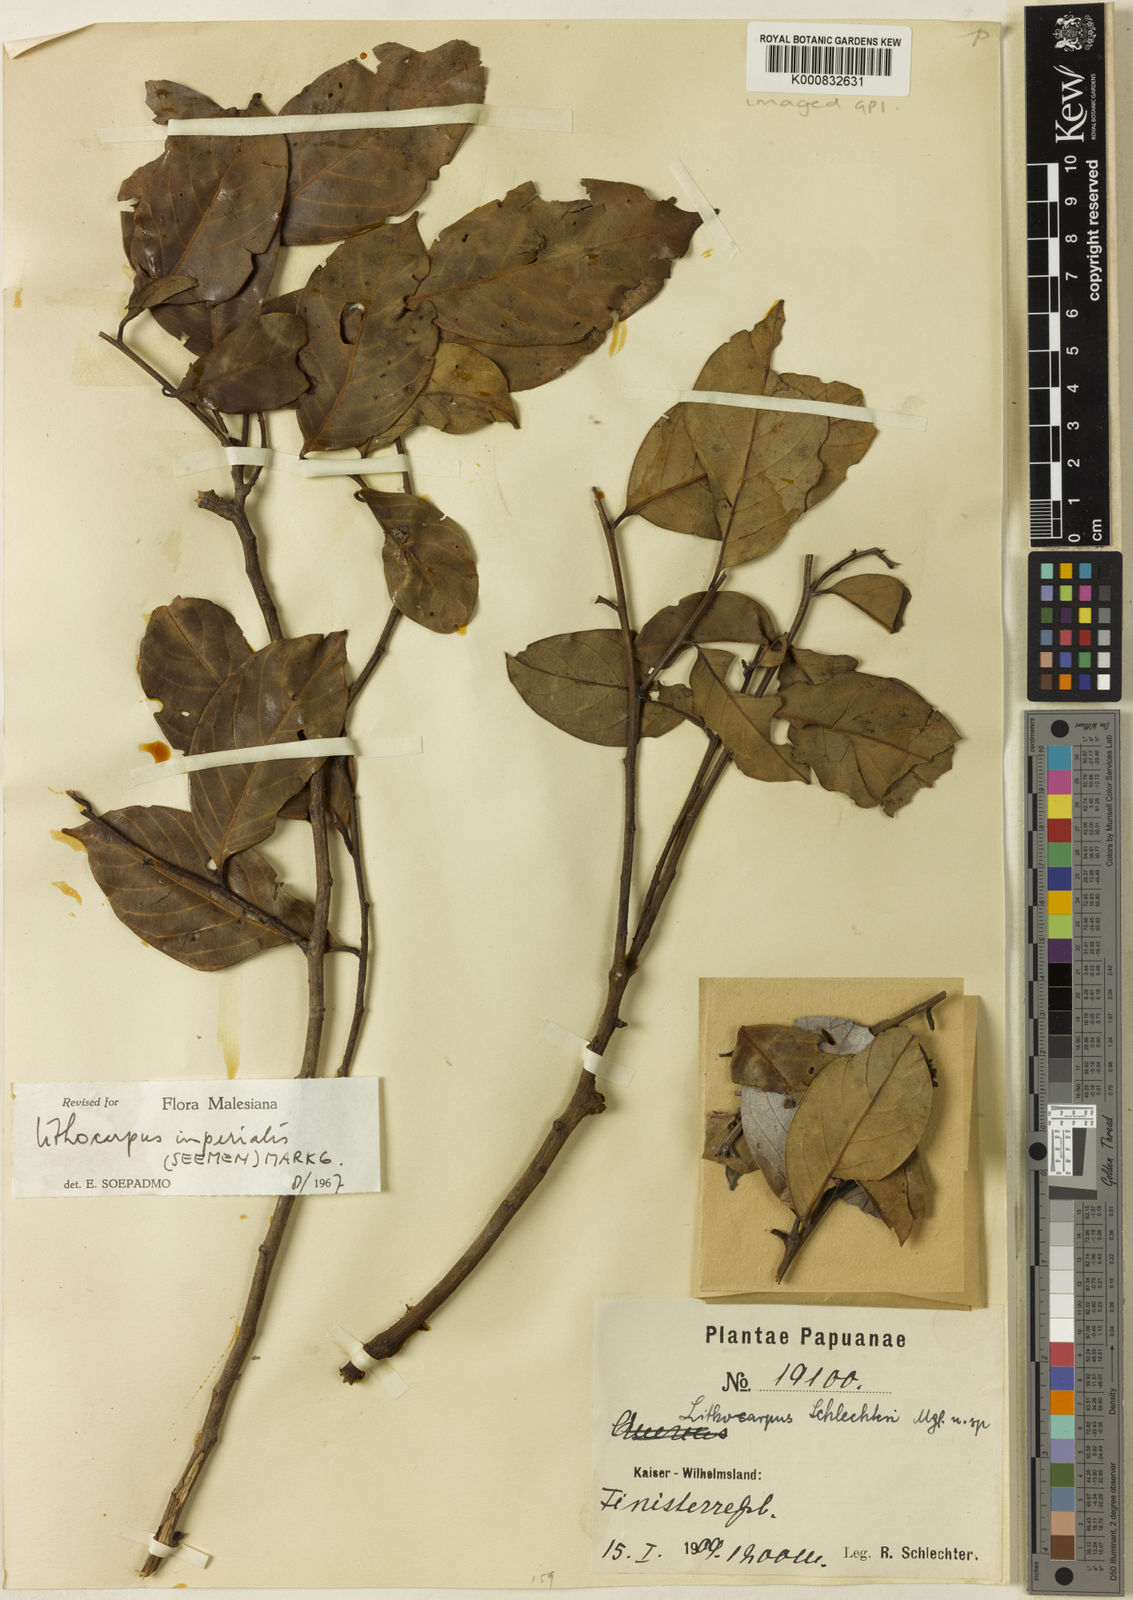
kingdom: Plantae
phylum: Tracheophyta
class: Magnoliopsida
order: Fagales
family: Fagaceae
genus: Lithocarpus
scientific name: Lithocarpus imperialis
